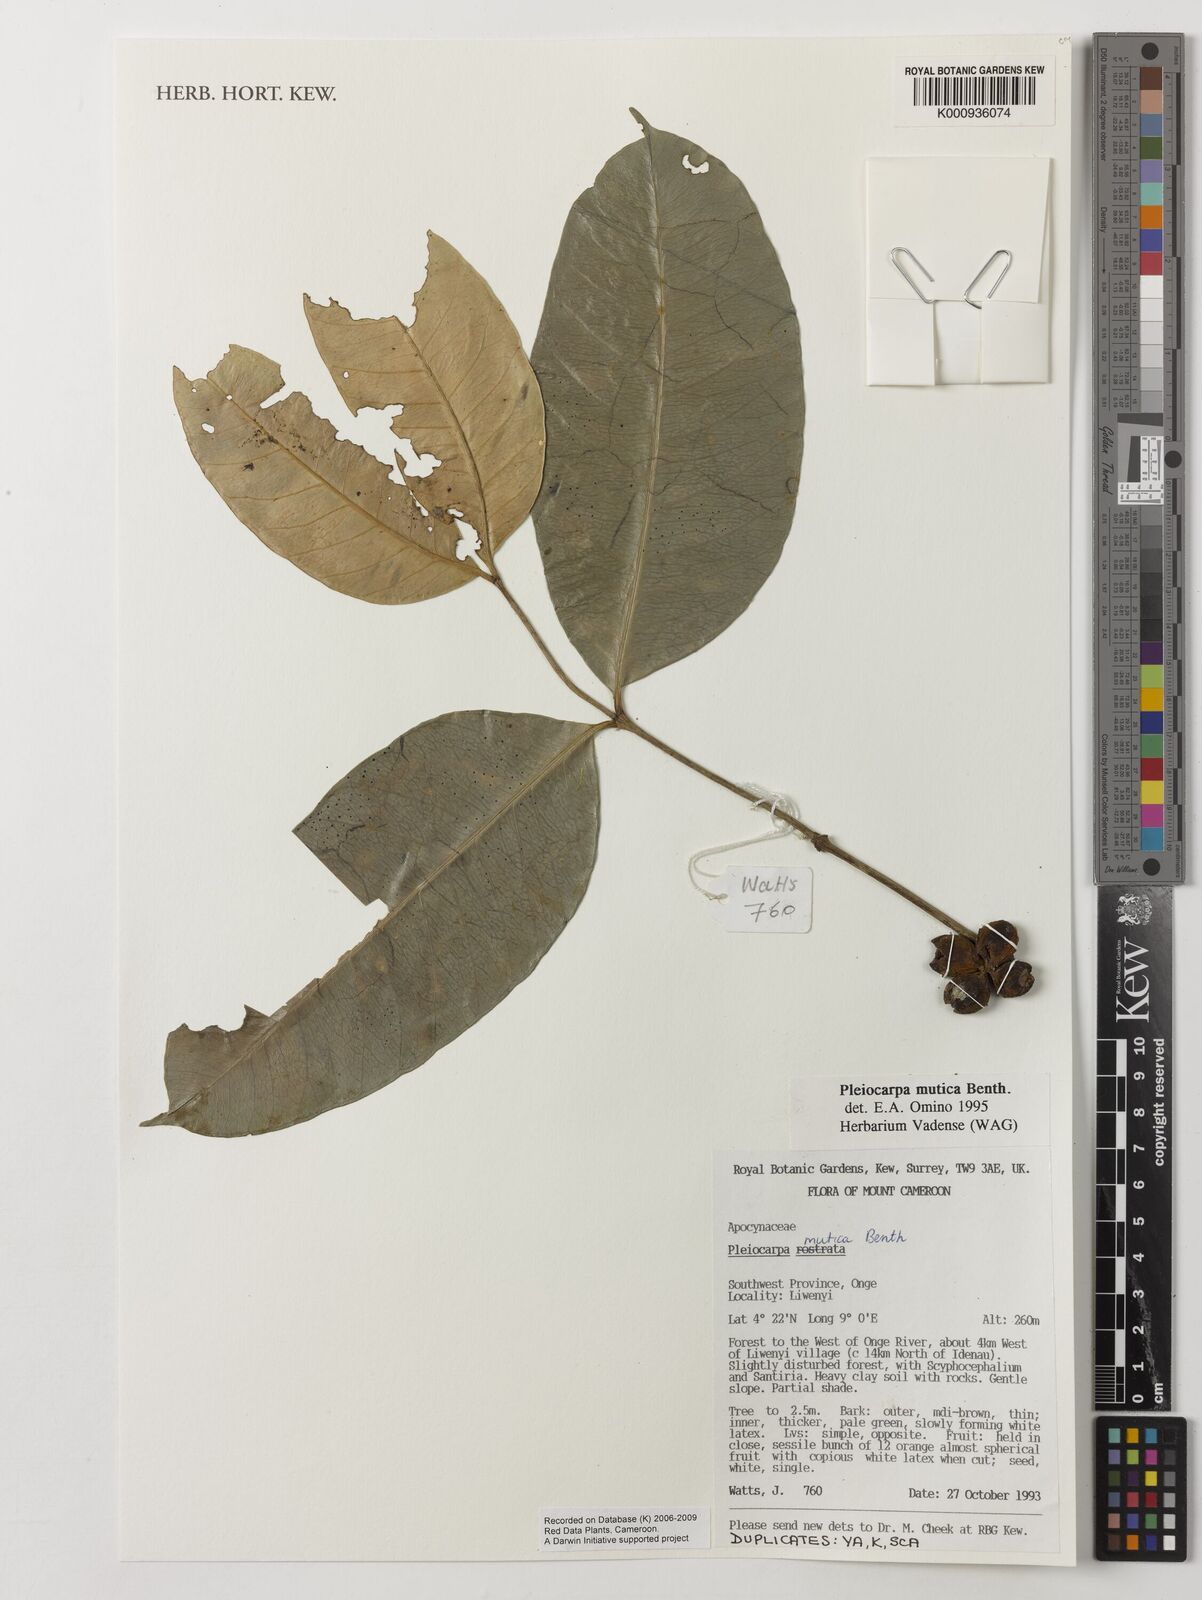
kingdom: Plantae
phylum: Tracheophyta
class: Magnoliopsida
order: Gentianales
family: Apocynaceae
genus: Pleiocarpa
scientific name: Pleiocarpa mutica
